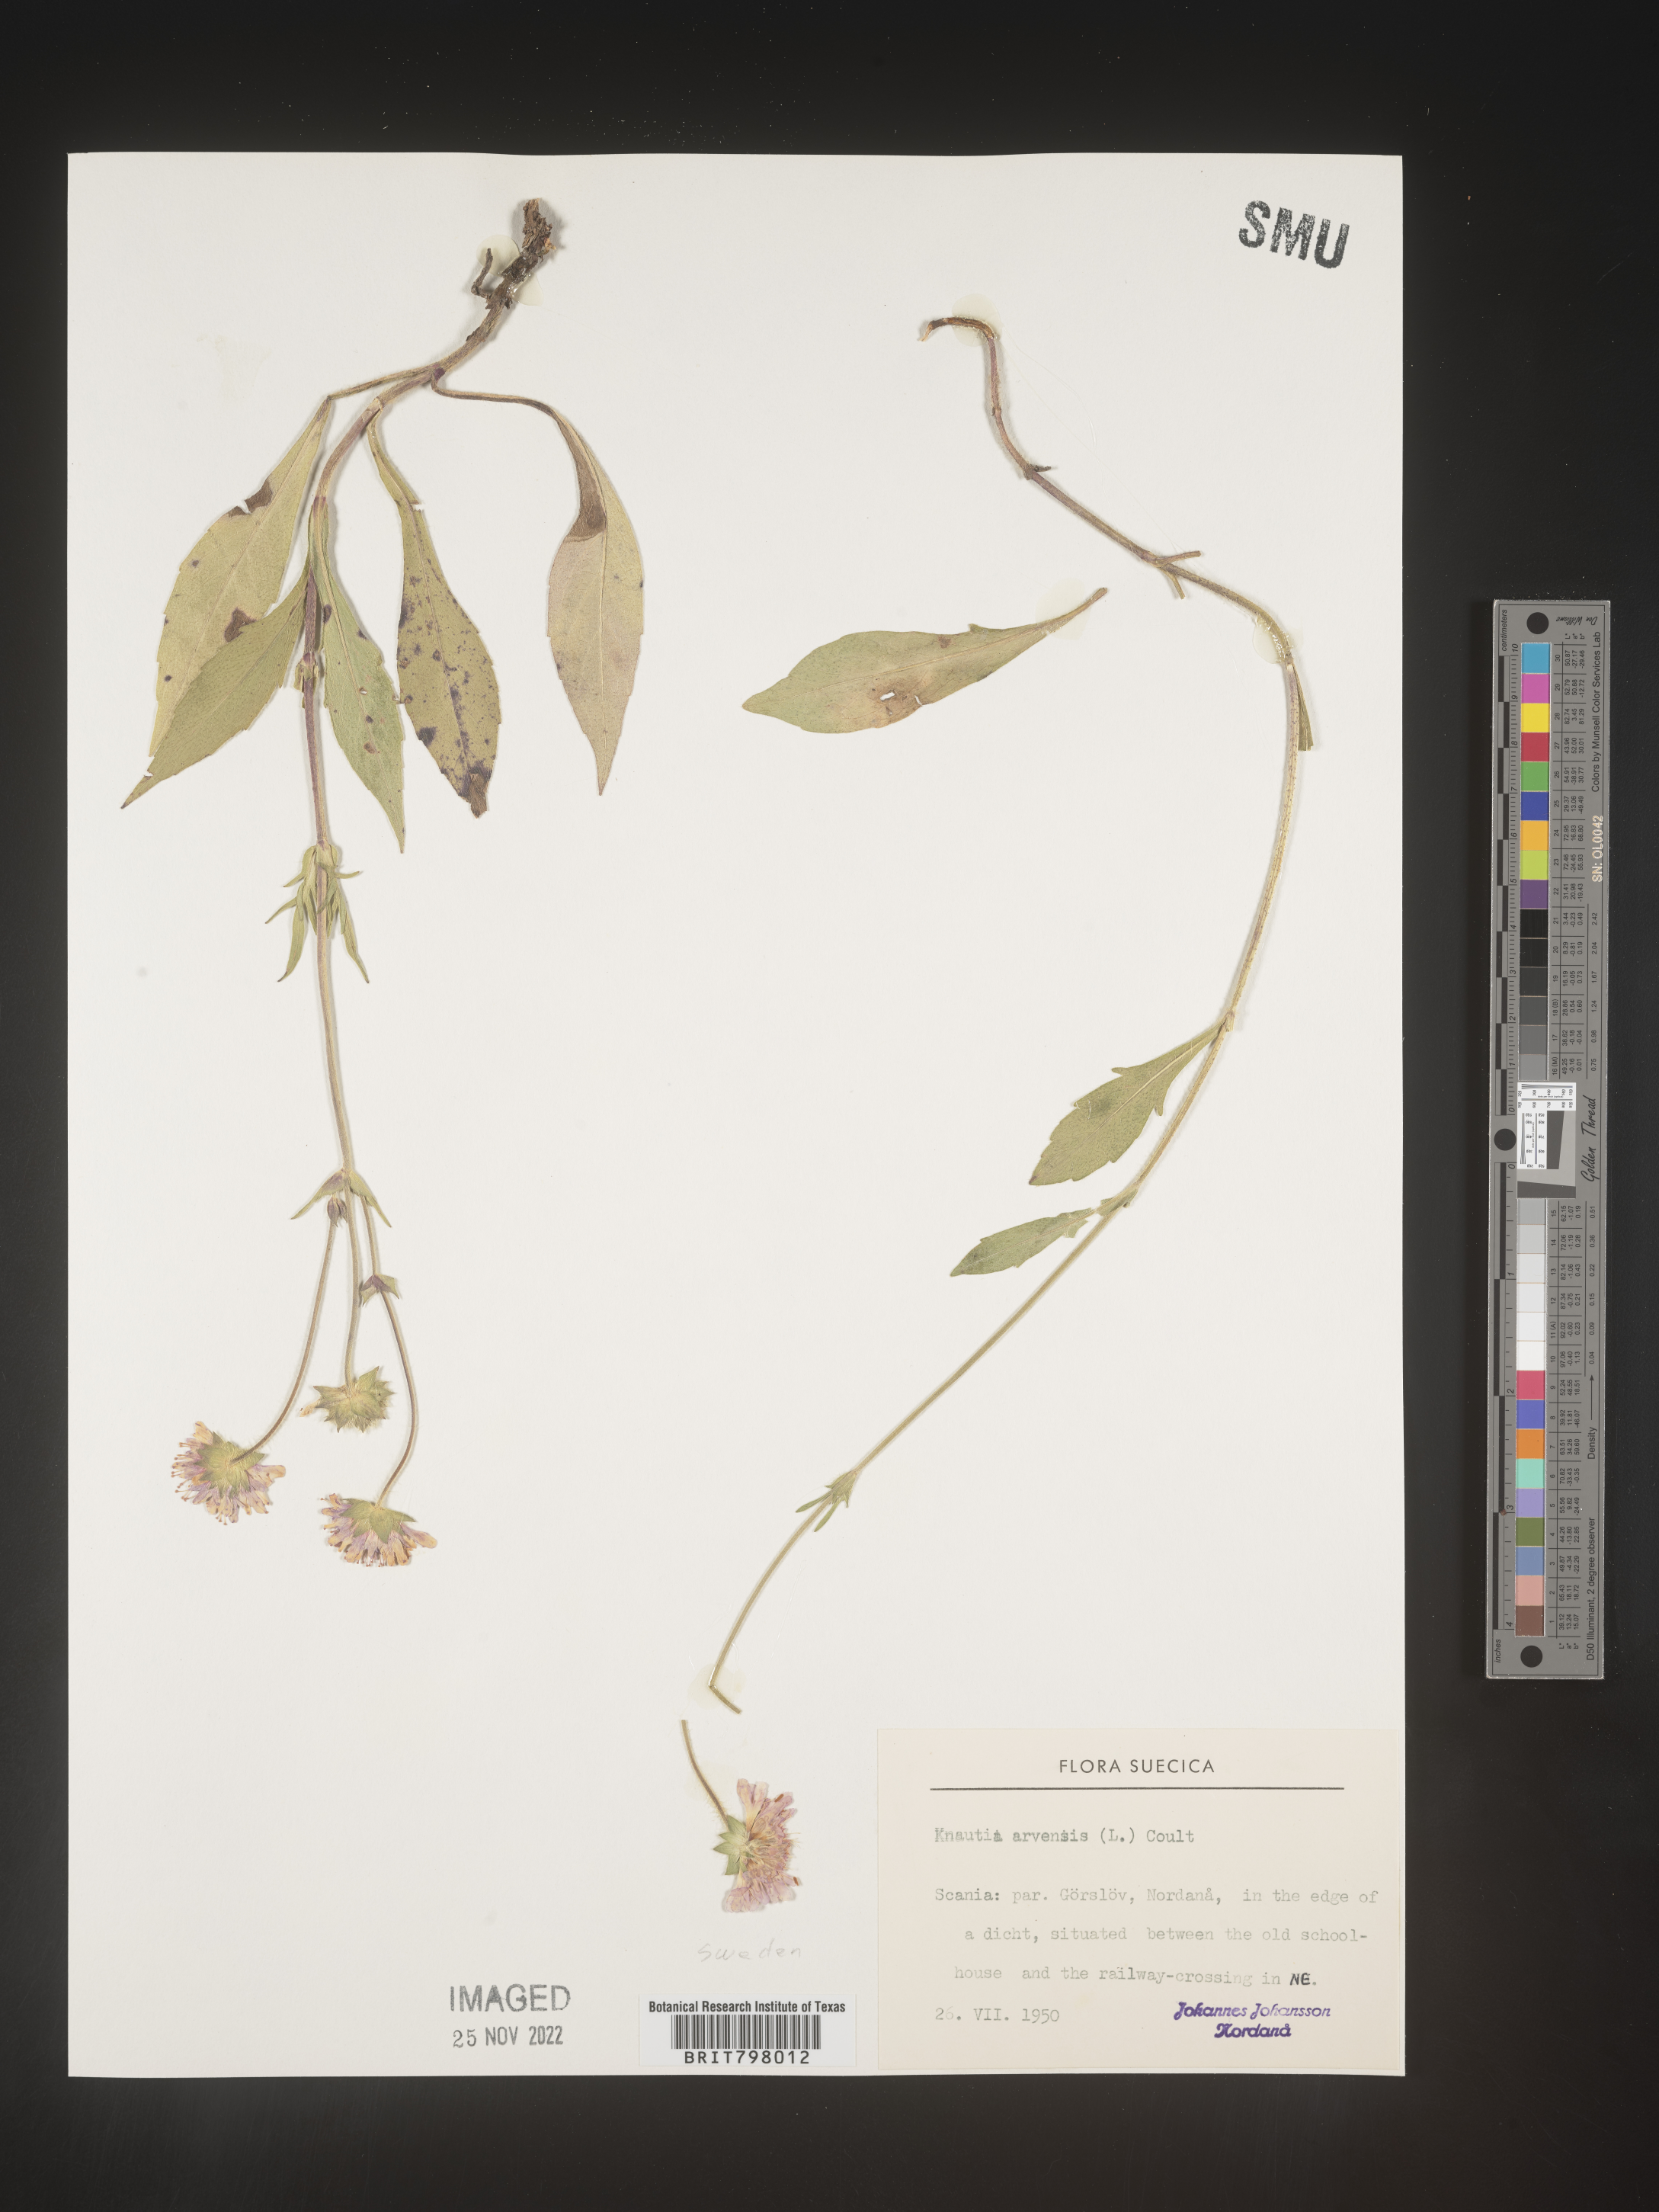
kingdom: Plantae
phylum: Tracheophyta
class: Magnoliopsida
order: Dipsacales
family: Caprifoliaceae
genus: Knautia
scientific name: Knautia
